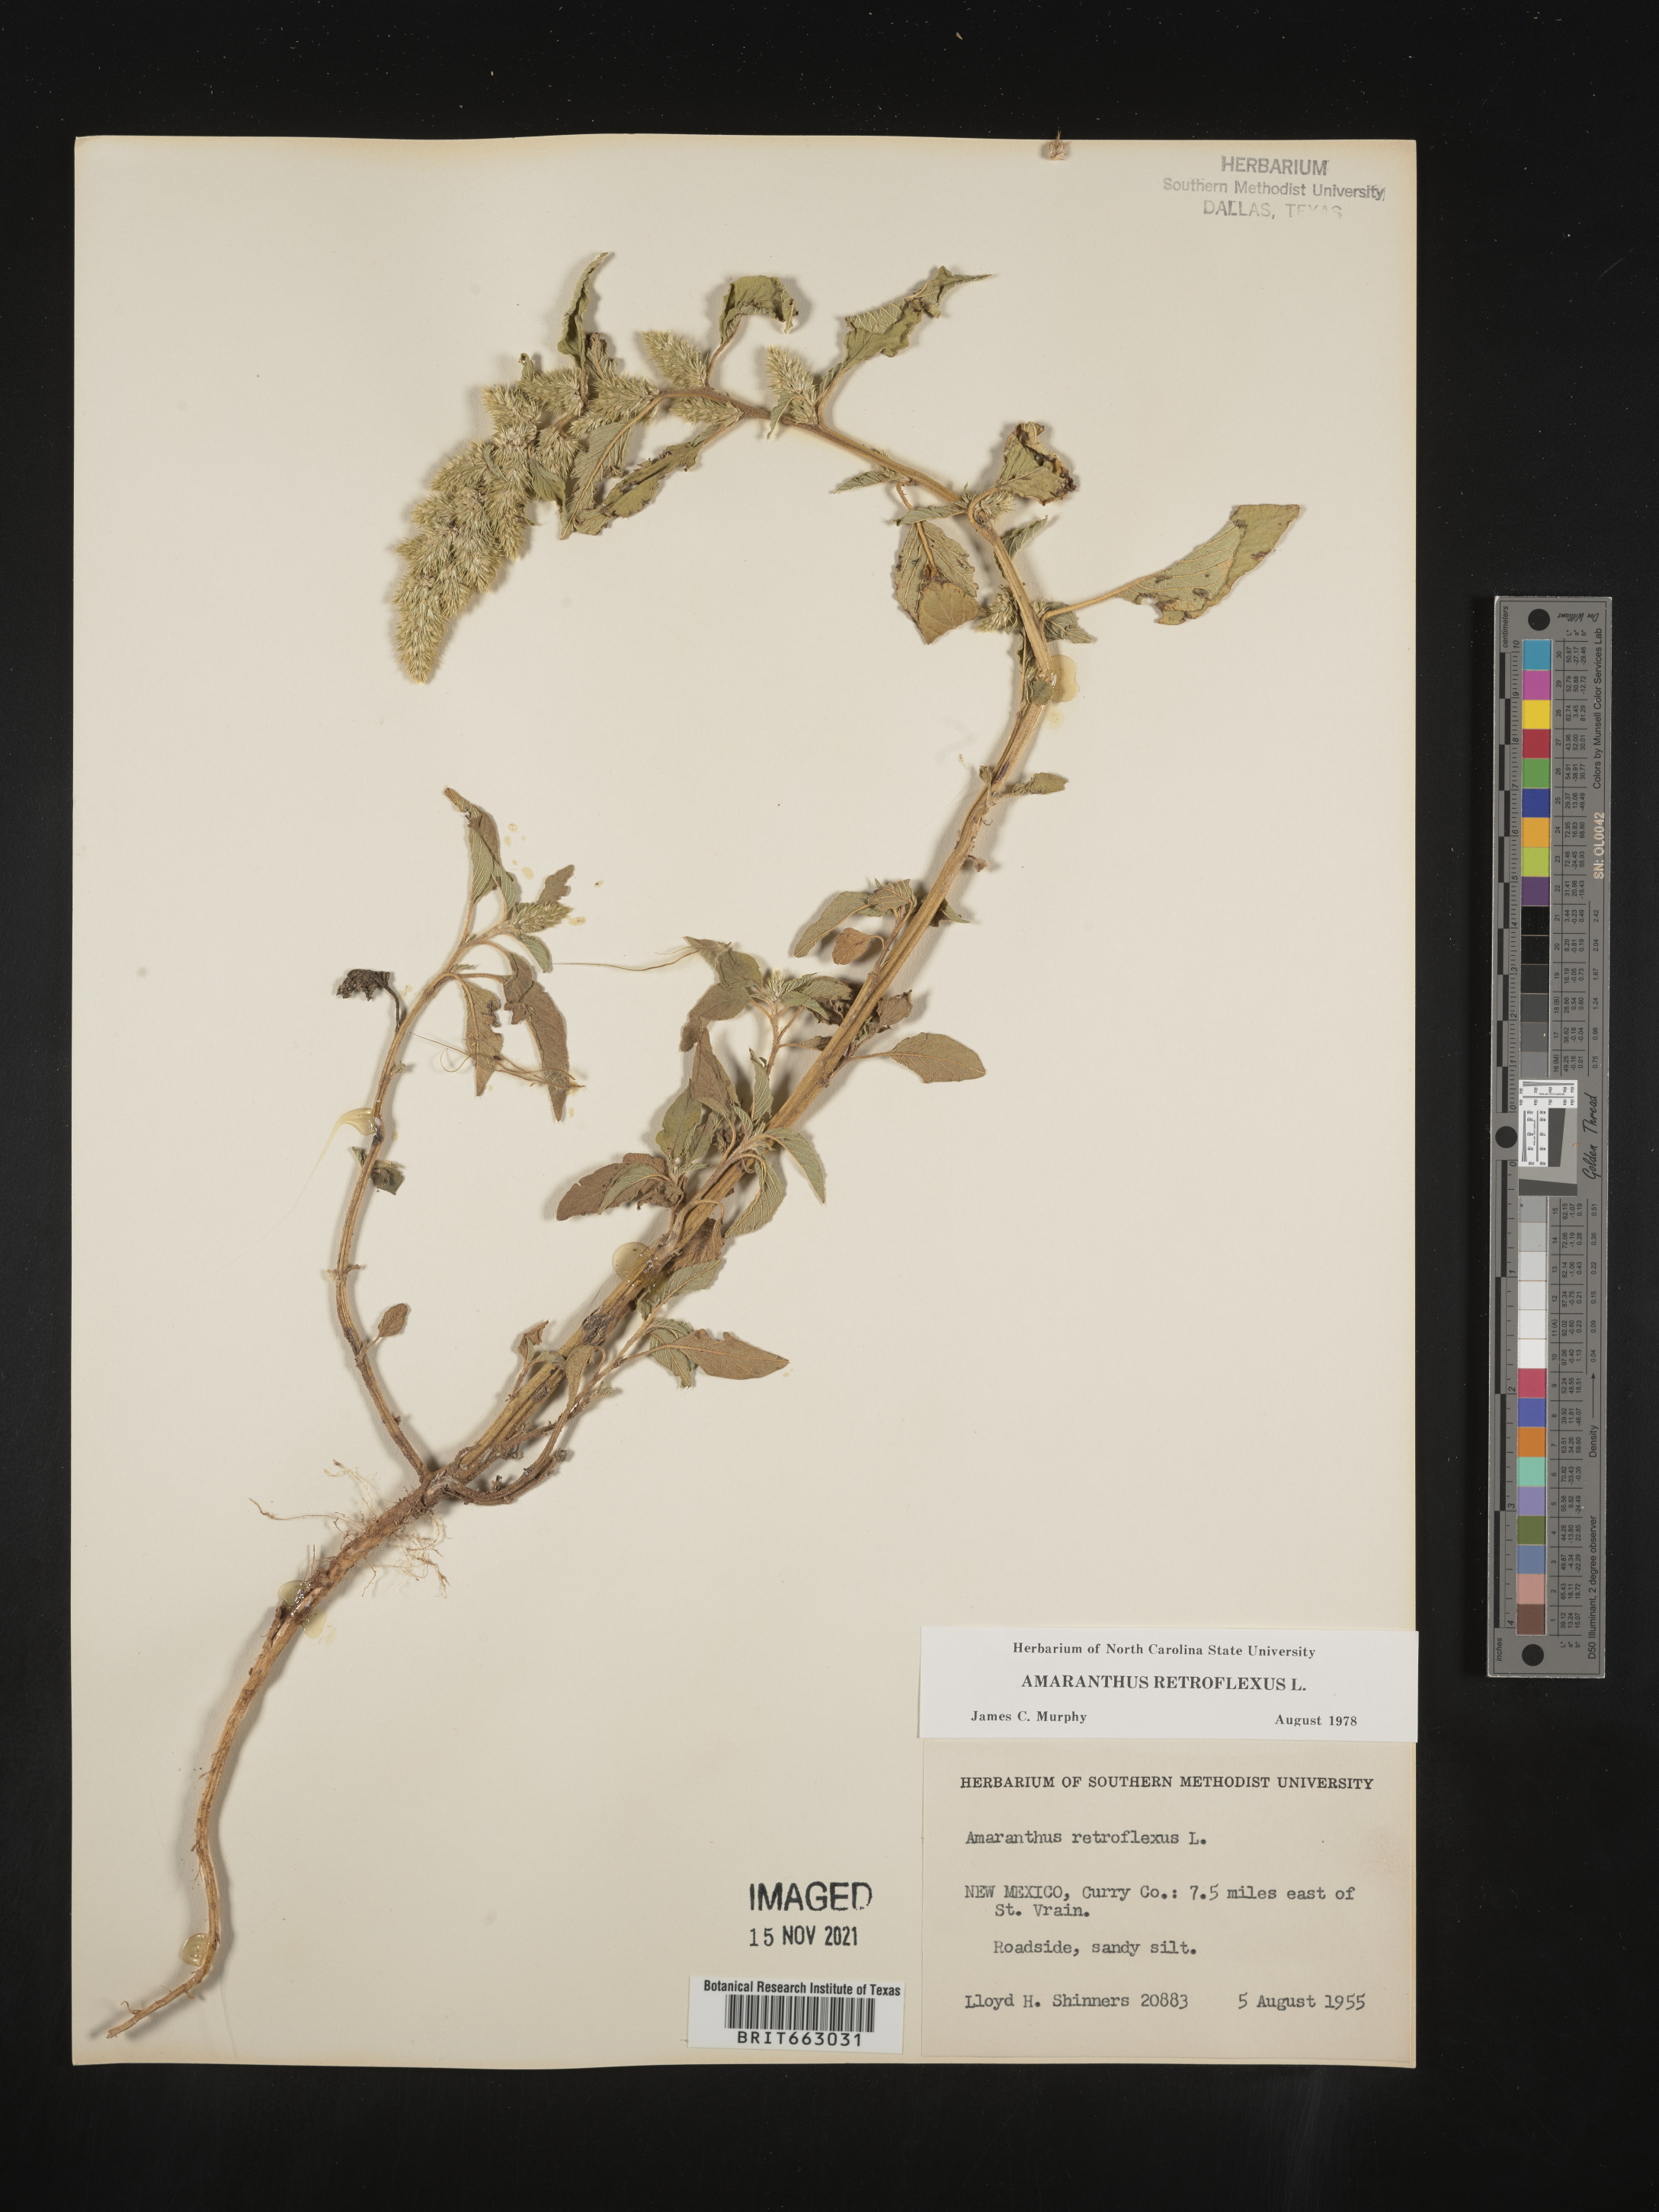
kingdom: Plantae
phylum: Tracheophyta
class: Magnoliopsida
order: Caryophyllales
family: Amaranthaceae
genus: Amaranthus
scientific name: Amaranthus retroflexus
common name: Redroot amaranth
